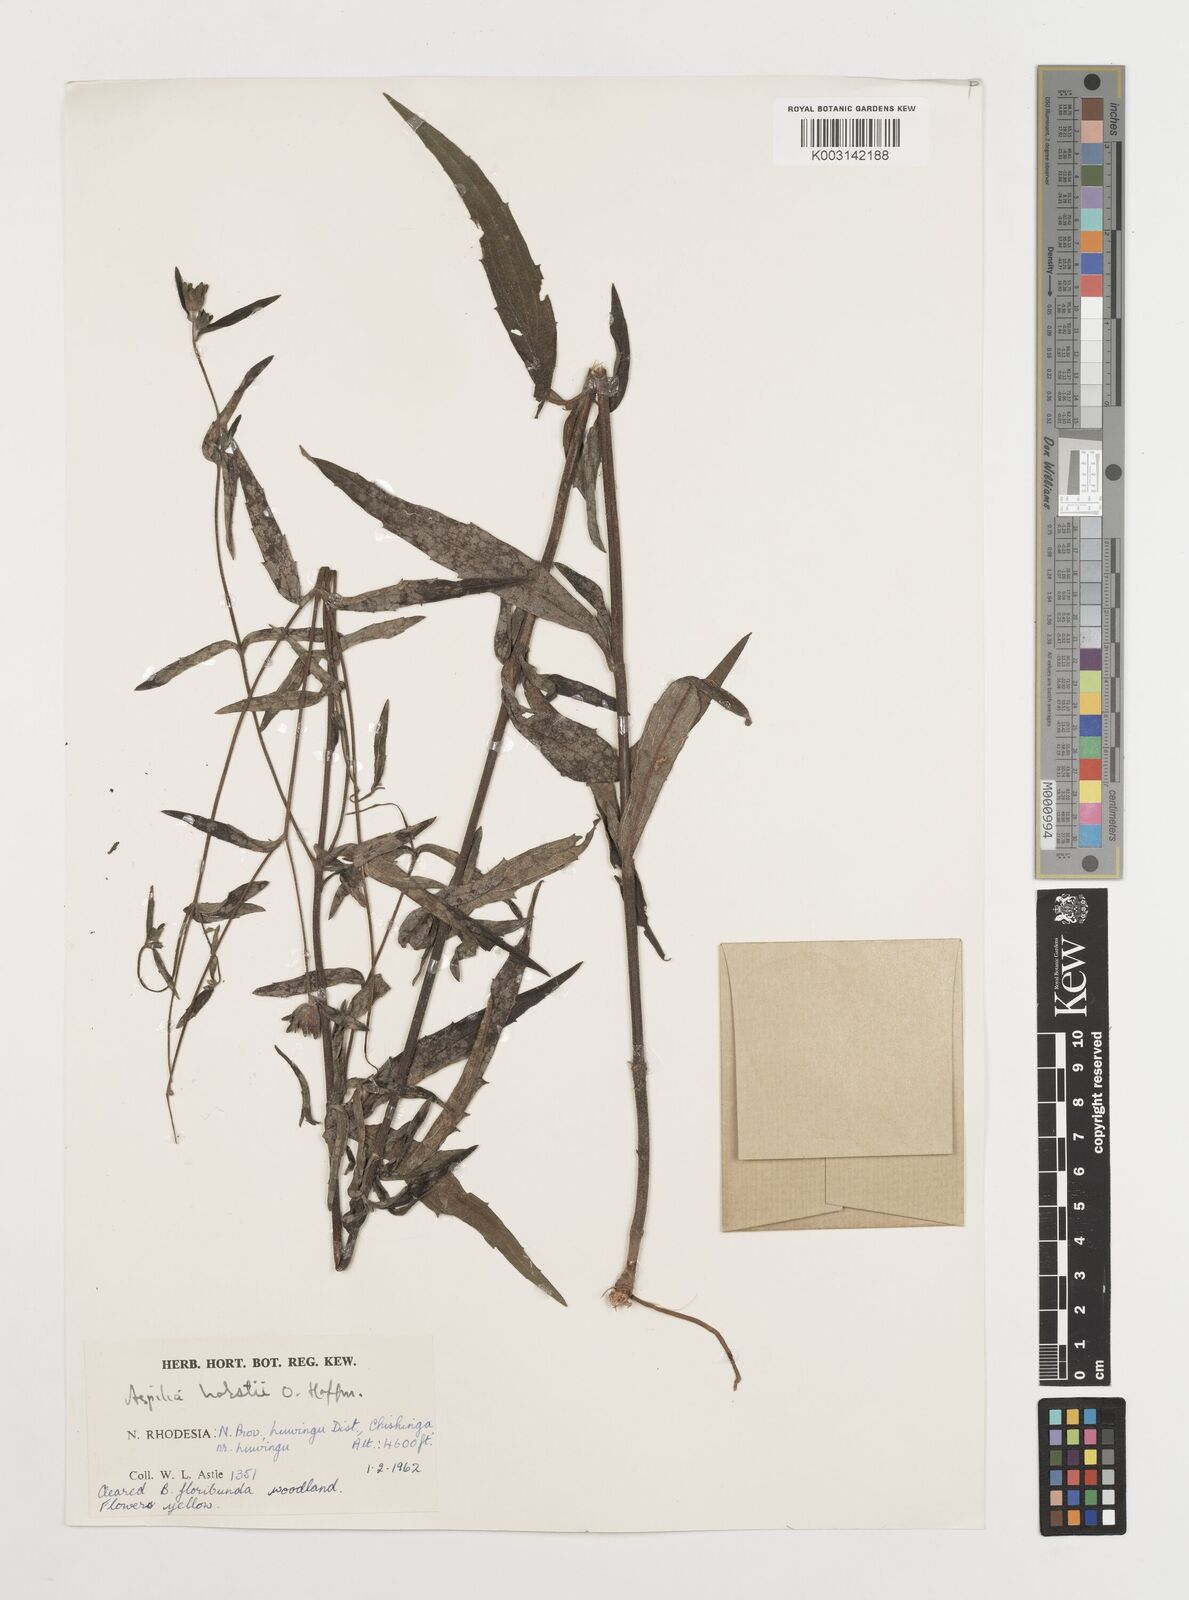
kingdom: Plantae
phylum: Tracheophyta
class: Magnoliopsida
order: Asterales
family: Asteraceae
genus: Aspilia
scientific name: Aspilia mossambicensis
